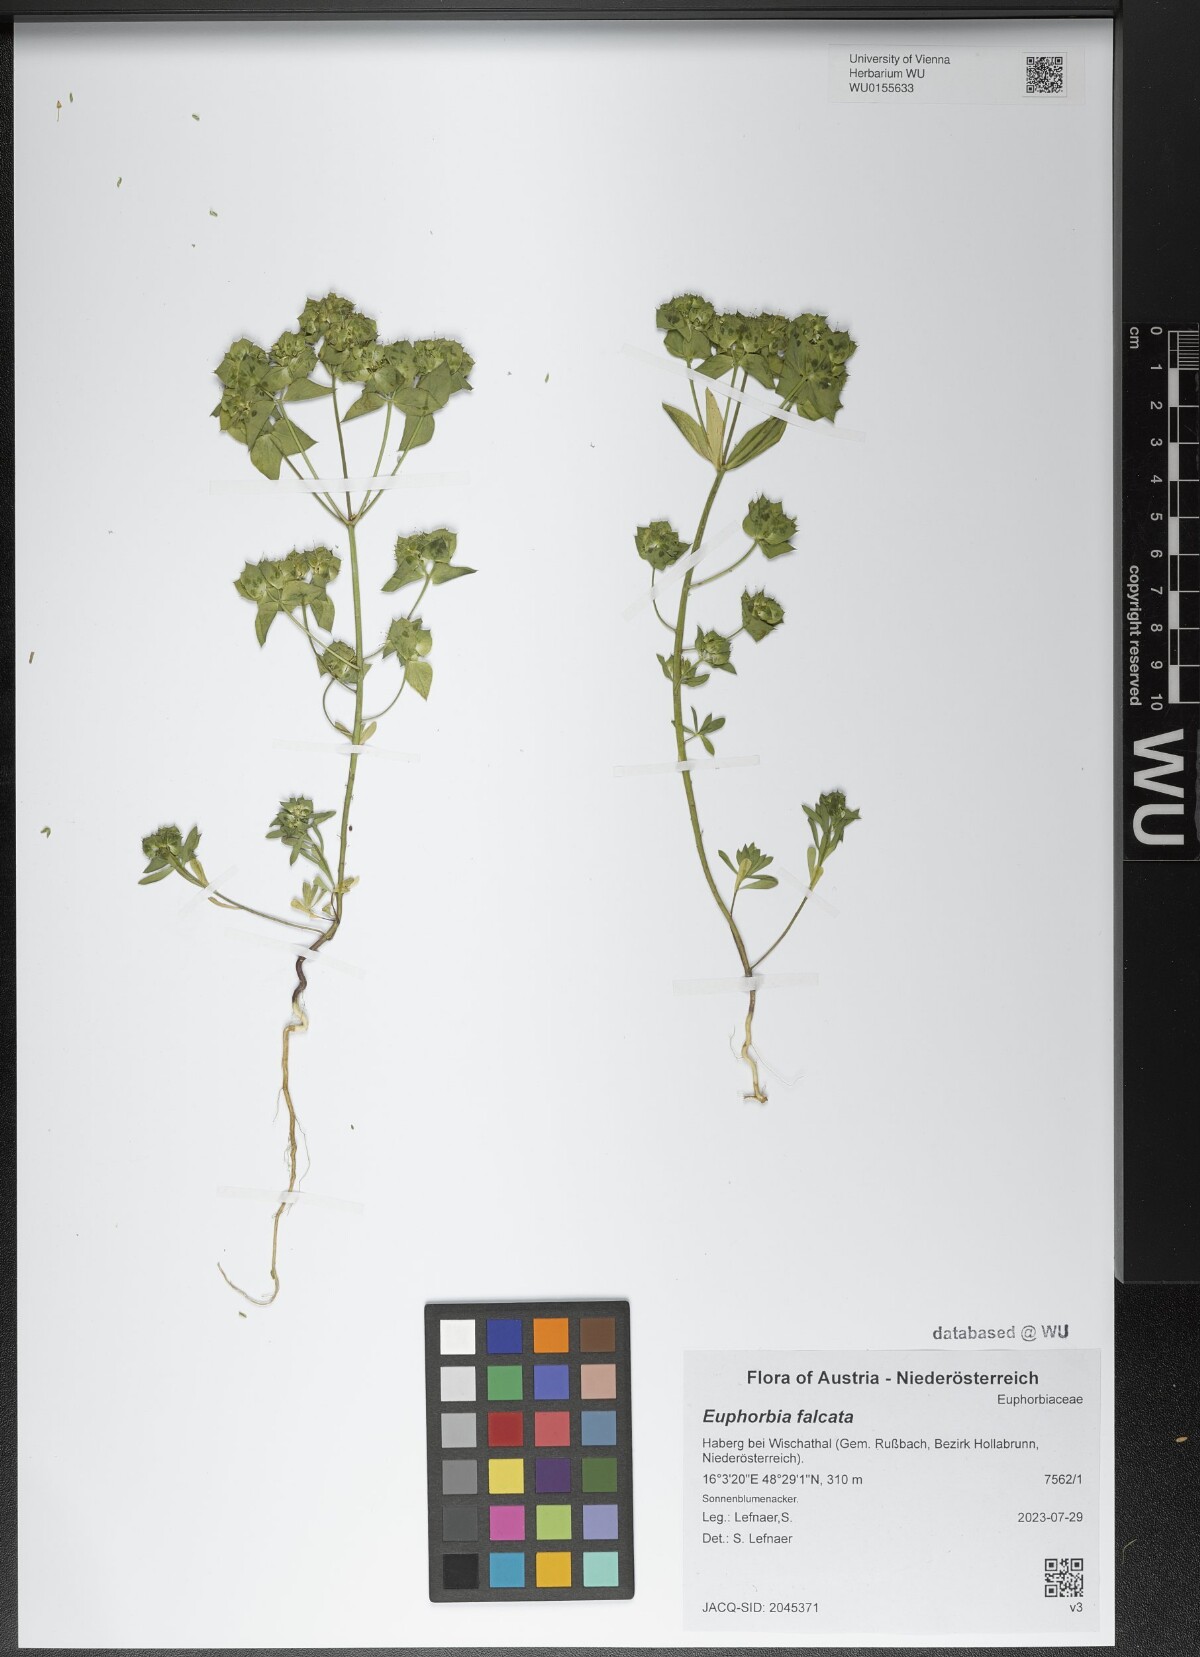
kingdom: Plantae
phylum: Tracheophyta
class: Magnoliopsida
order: Malpighiales
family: Euphorbiaceae
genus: Euphorbia
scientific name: Euphorbia falcata
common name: Sickle spurge
